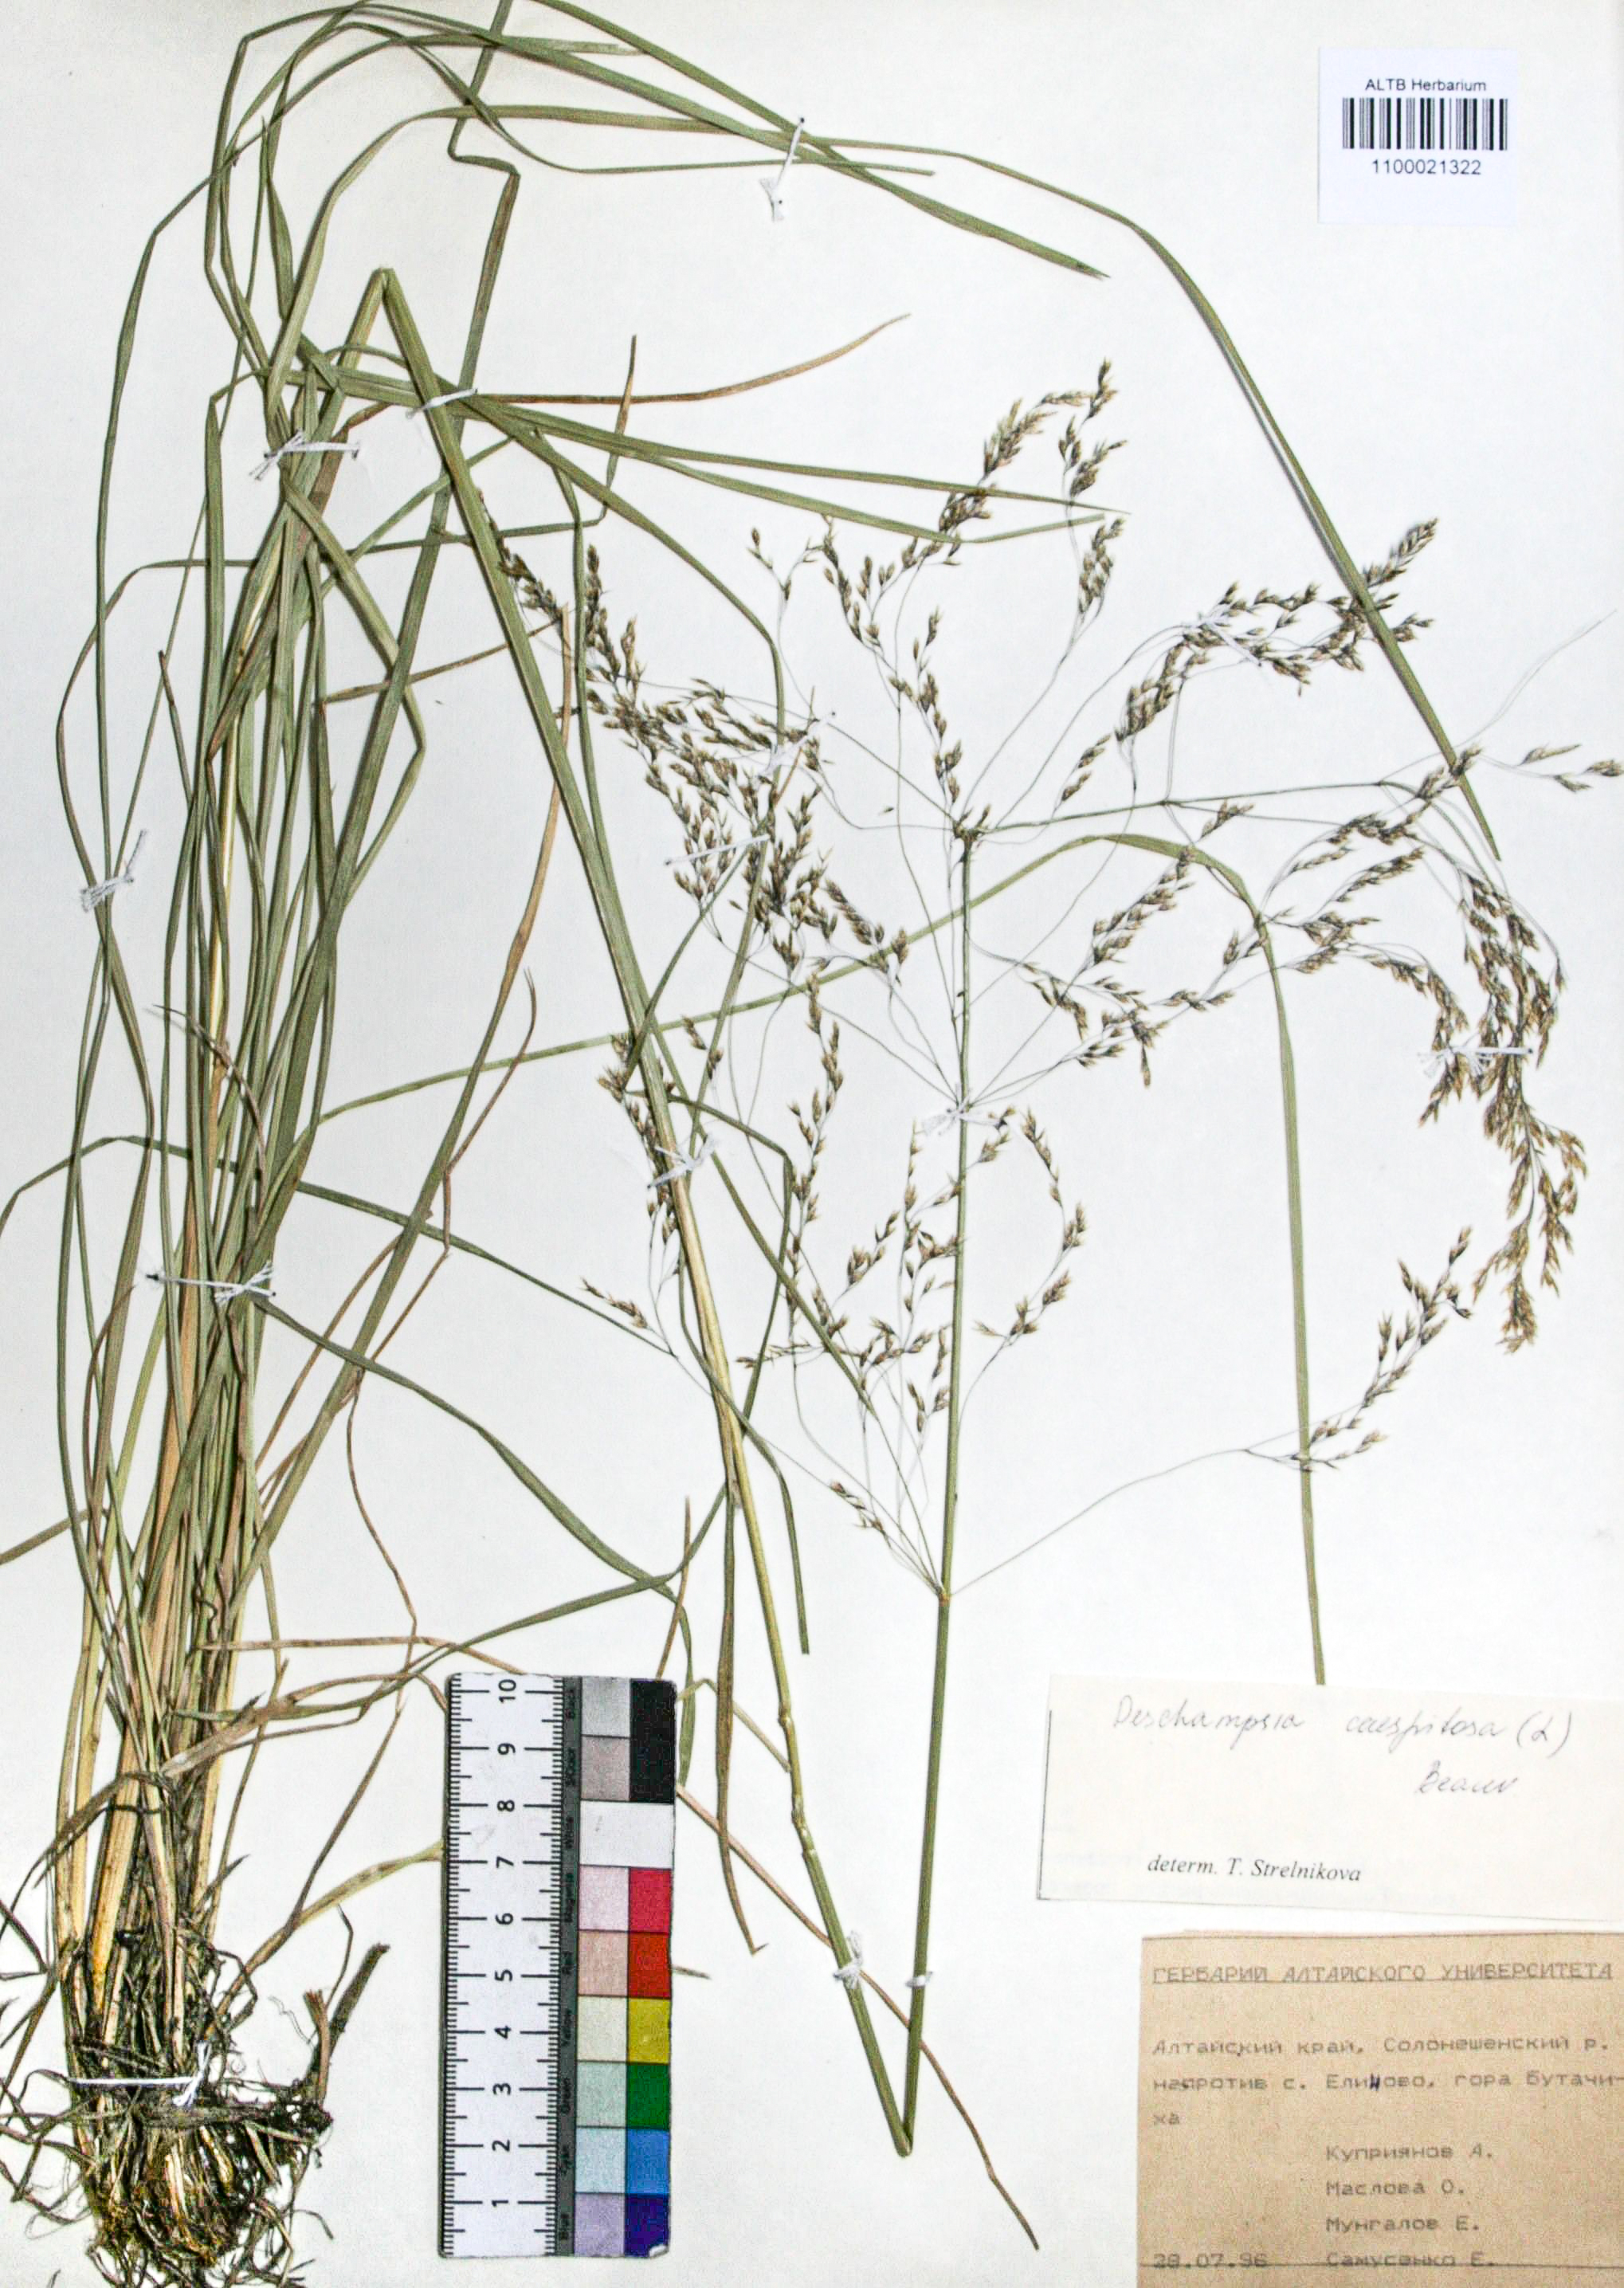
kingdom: Plantae
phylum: Tracheophyta
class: Liliopsida
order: Poales
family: Poaceae
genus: Deschampsia
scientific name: Deschampsia cespitosa
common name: Tufted hair-grass
